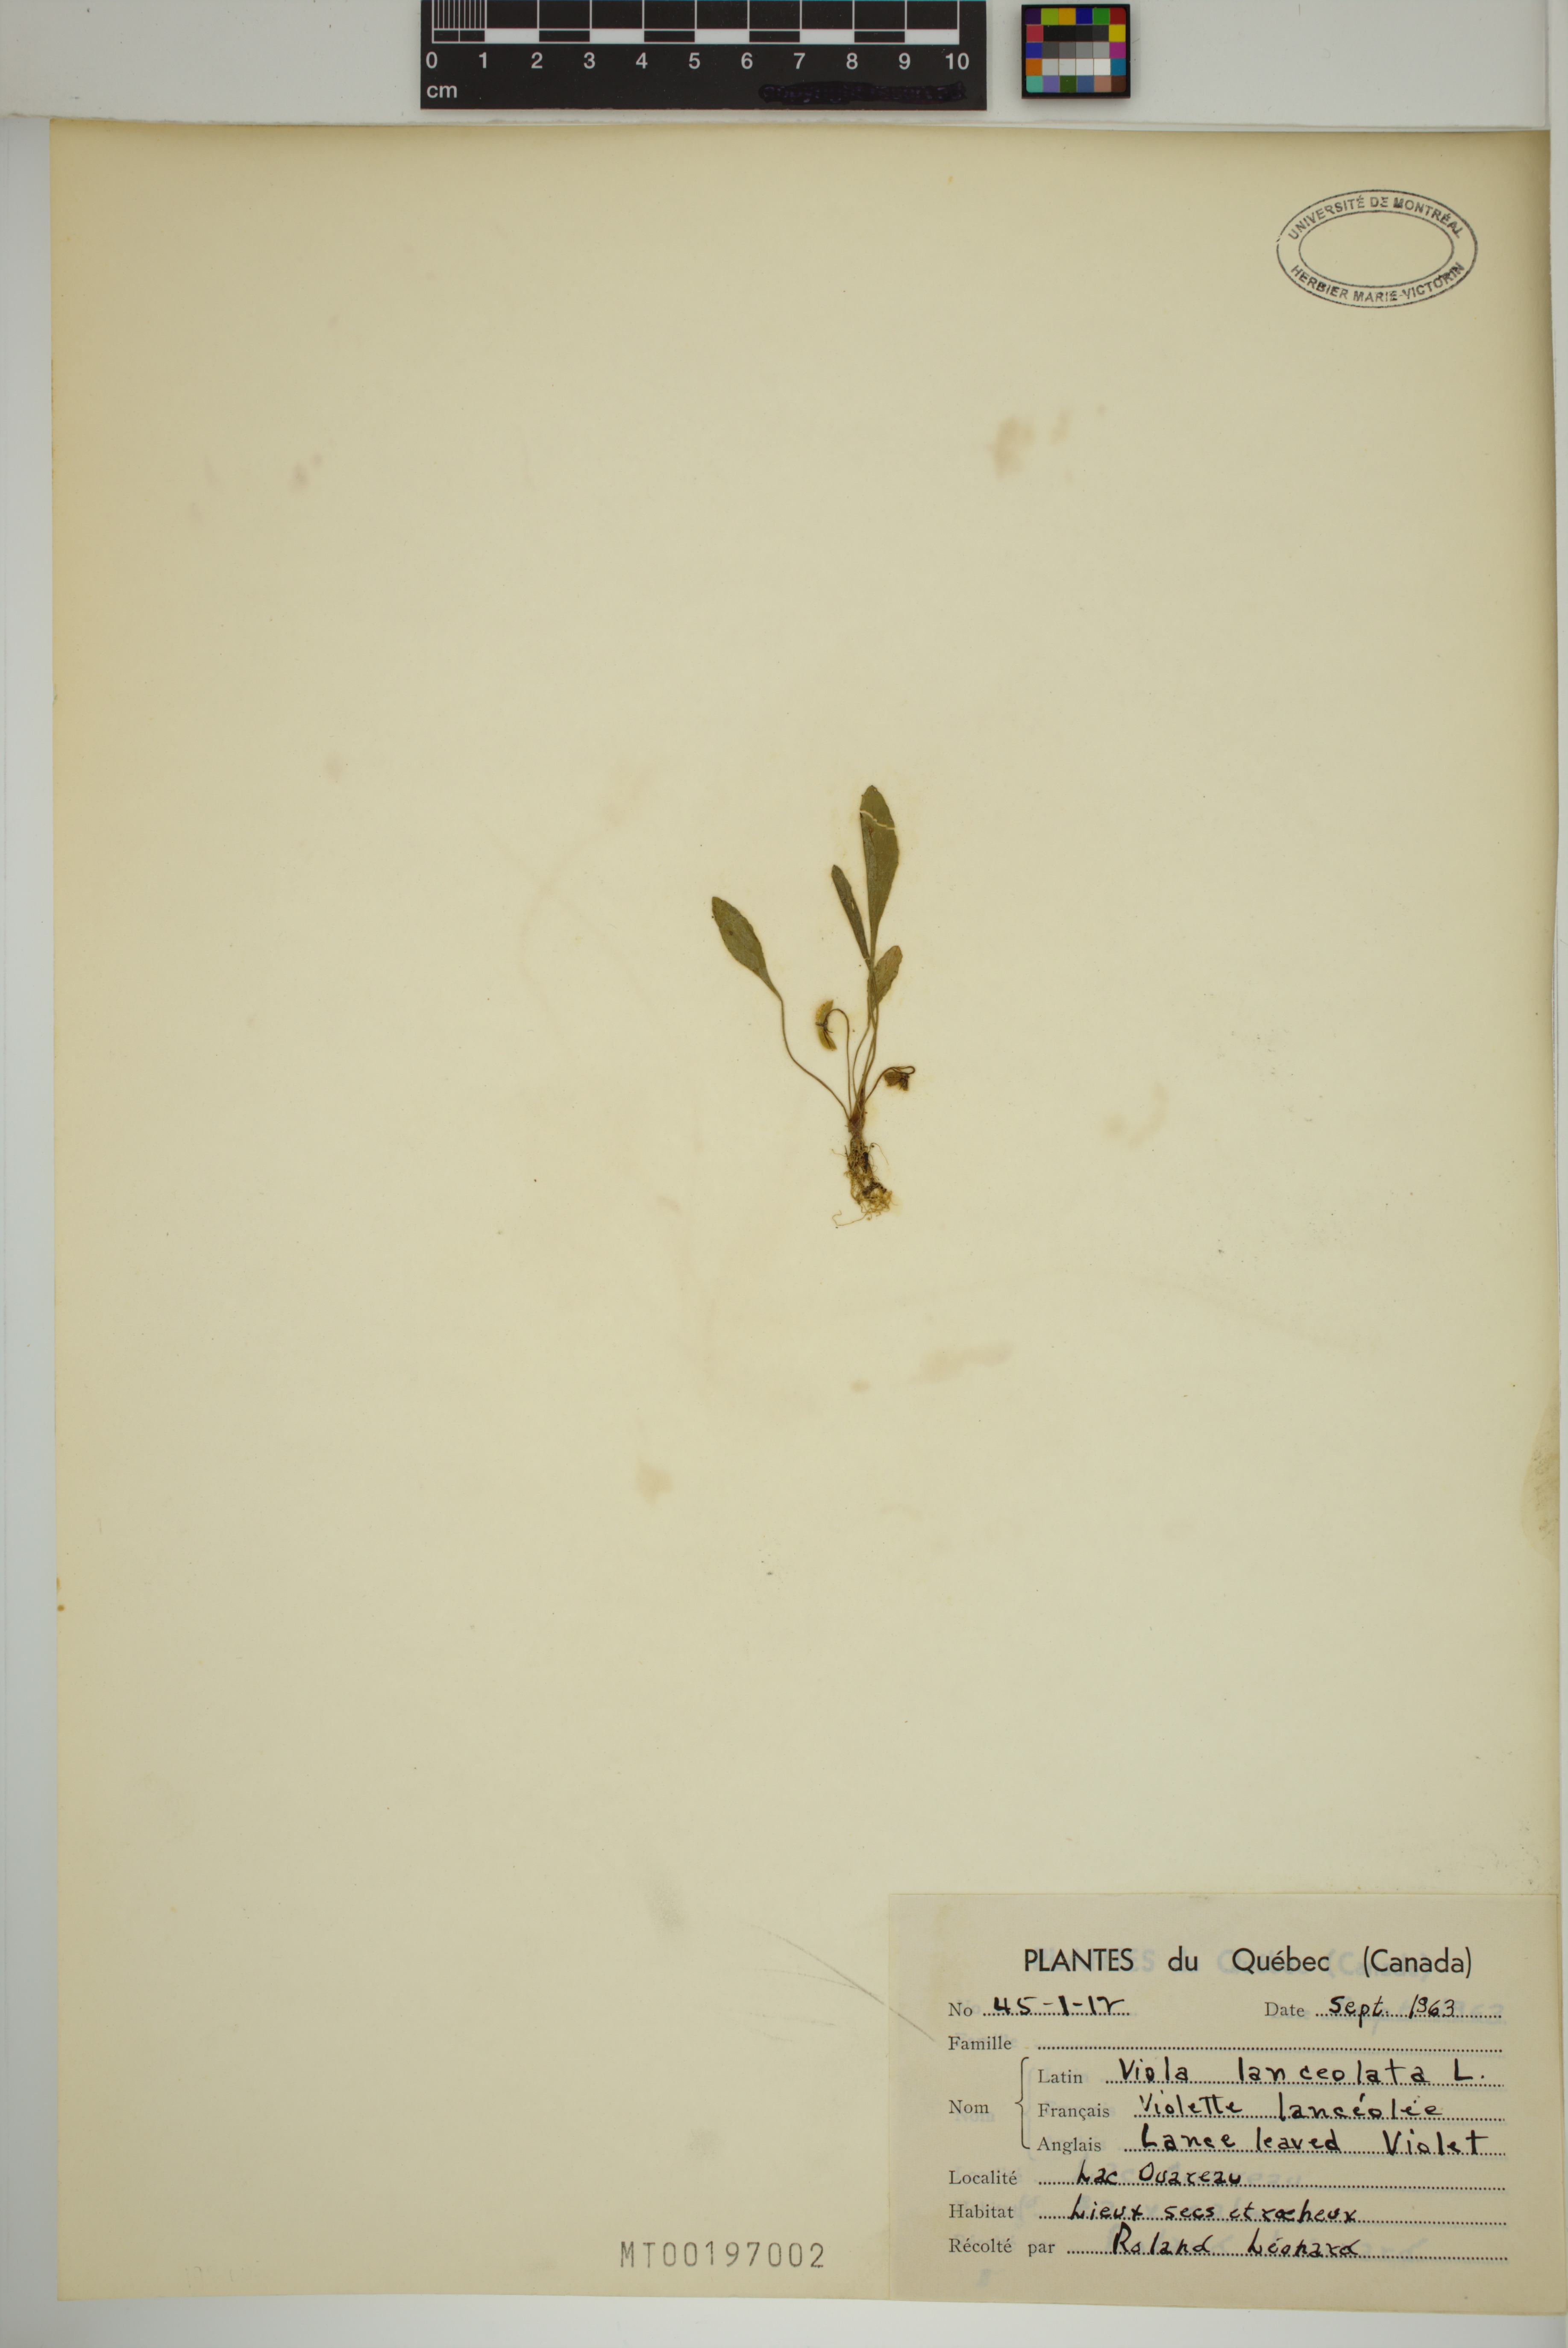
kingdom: Plantae
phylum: Tracheophyta
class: Magnoliopsida
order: Malpighiales
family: Violaceae
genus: Viola
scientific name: Viola lanceolata
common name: Bog white violet
